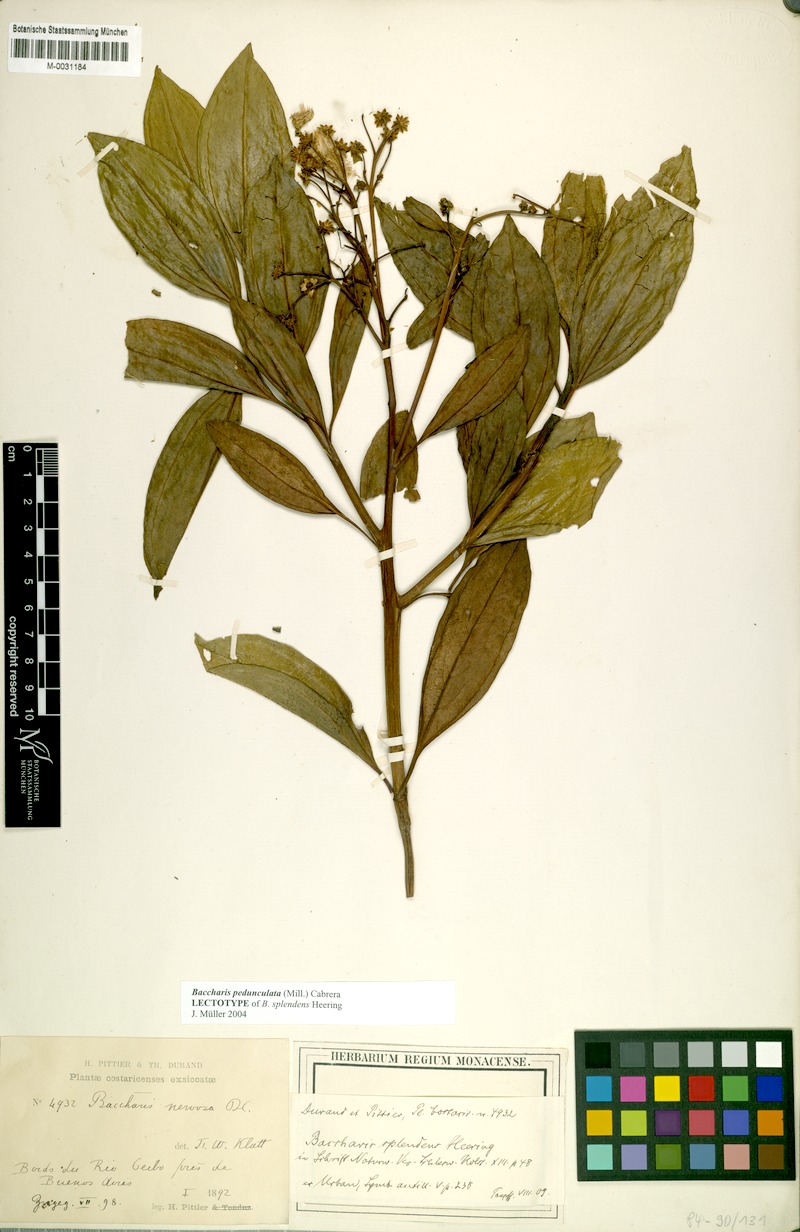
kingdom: Plantae
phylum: Tracheophyta
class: Magnoliopsida
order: Asterales
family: Asteraceae
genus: Baccharis
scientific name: Baccharis pedunculata
